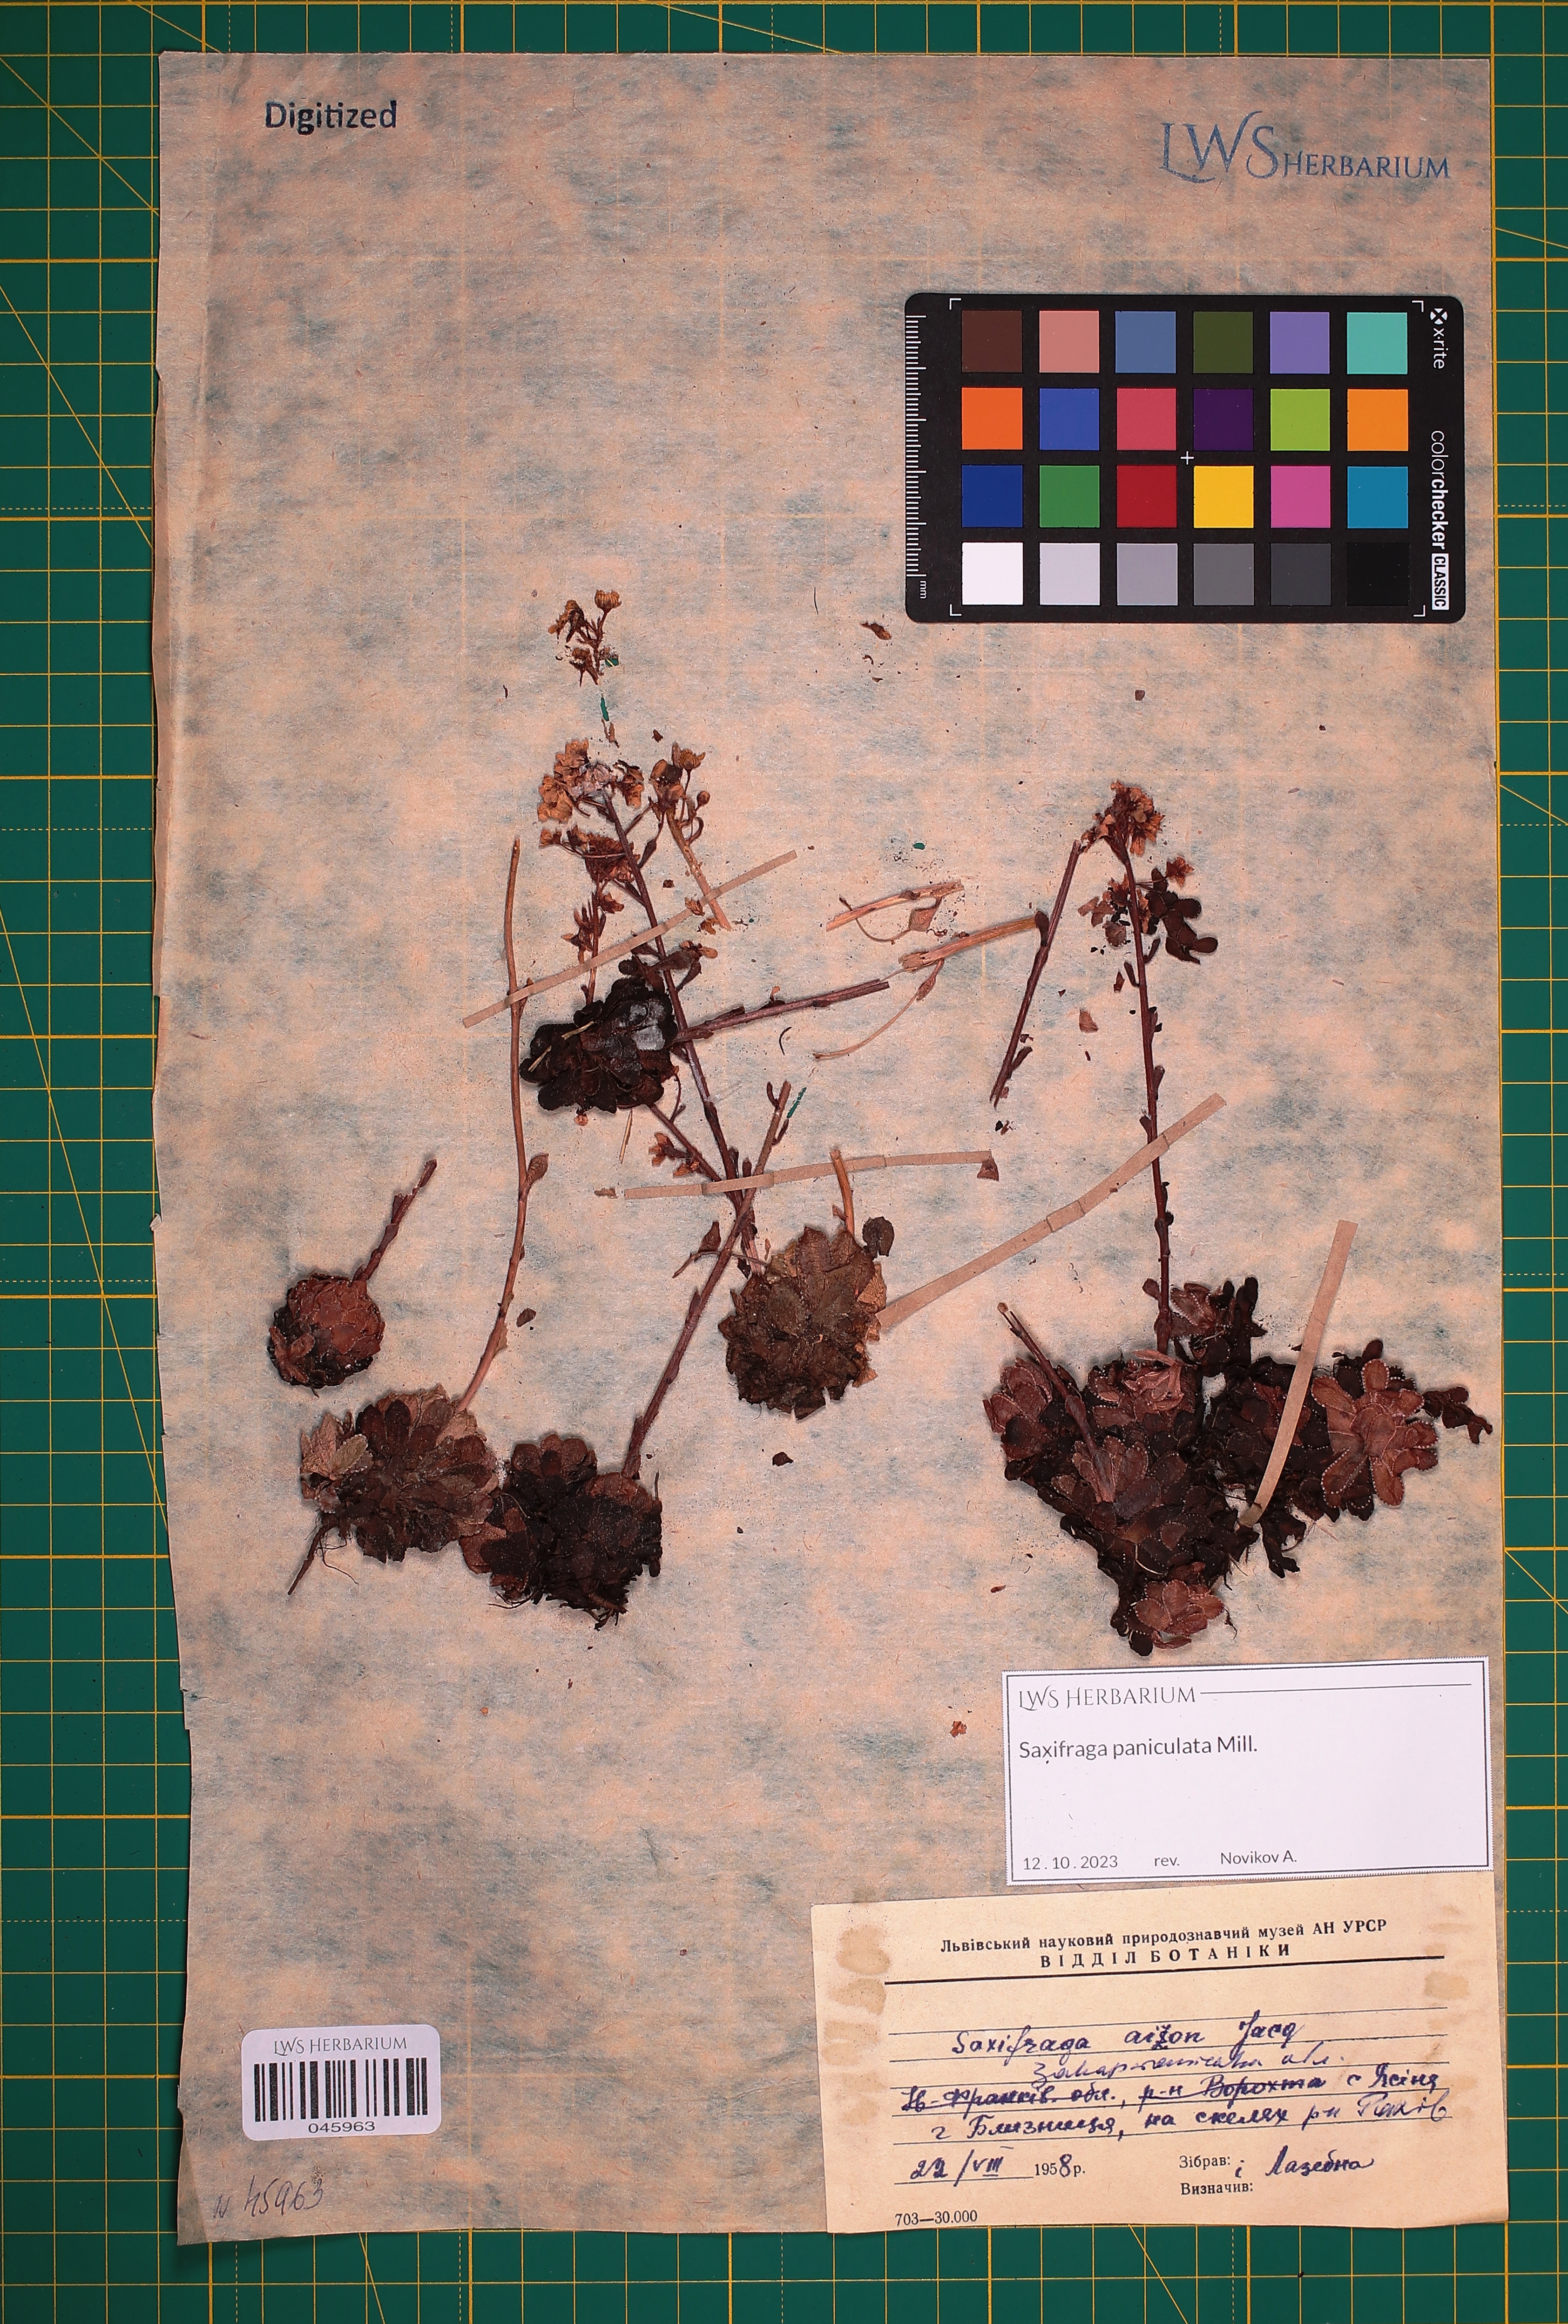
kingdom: Plantae
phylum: Tracheophyta
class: Magnoliopsida
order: Saxifragales
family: Saxifragaceae
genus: Saxifraga
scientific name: Saxifraga paniculata
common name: Livelong saxifrage
